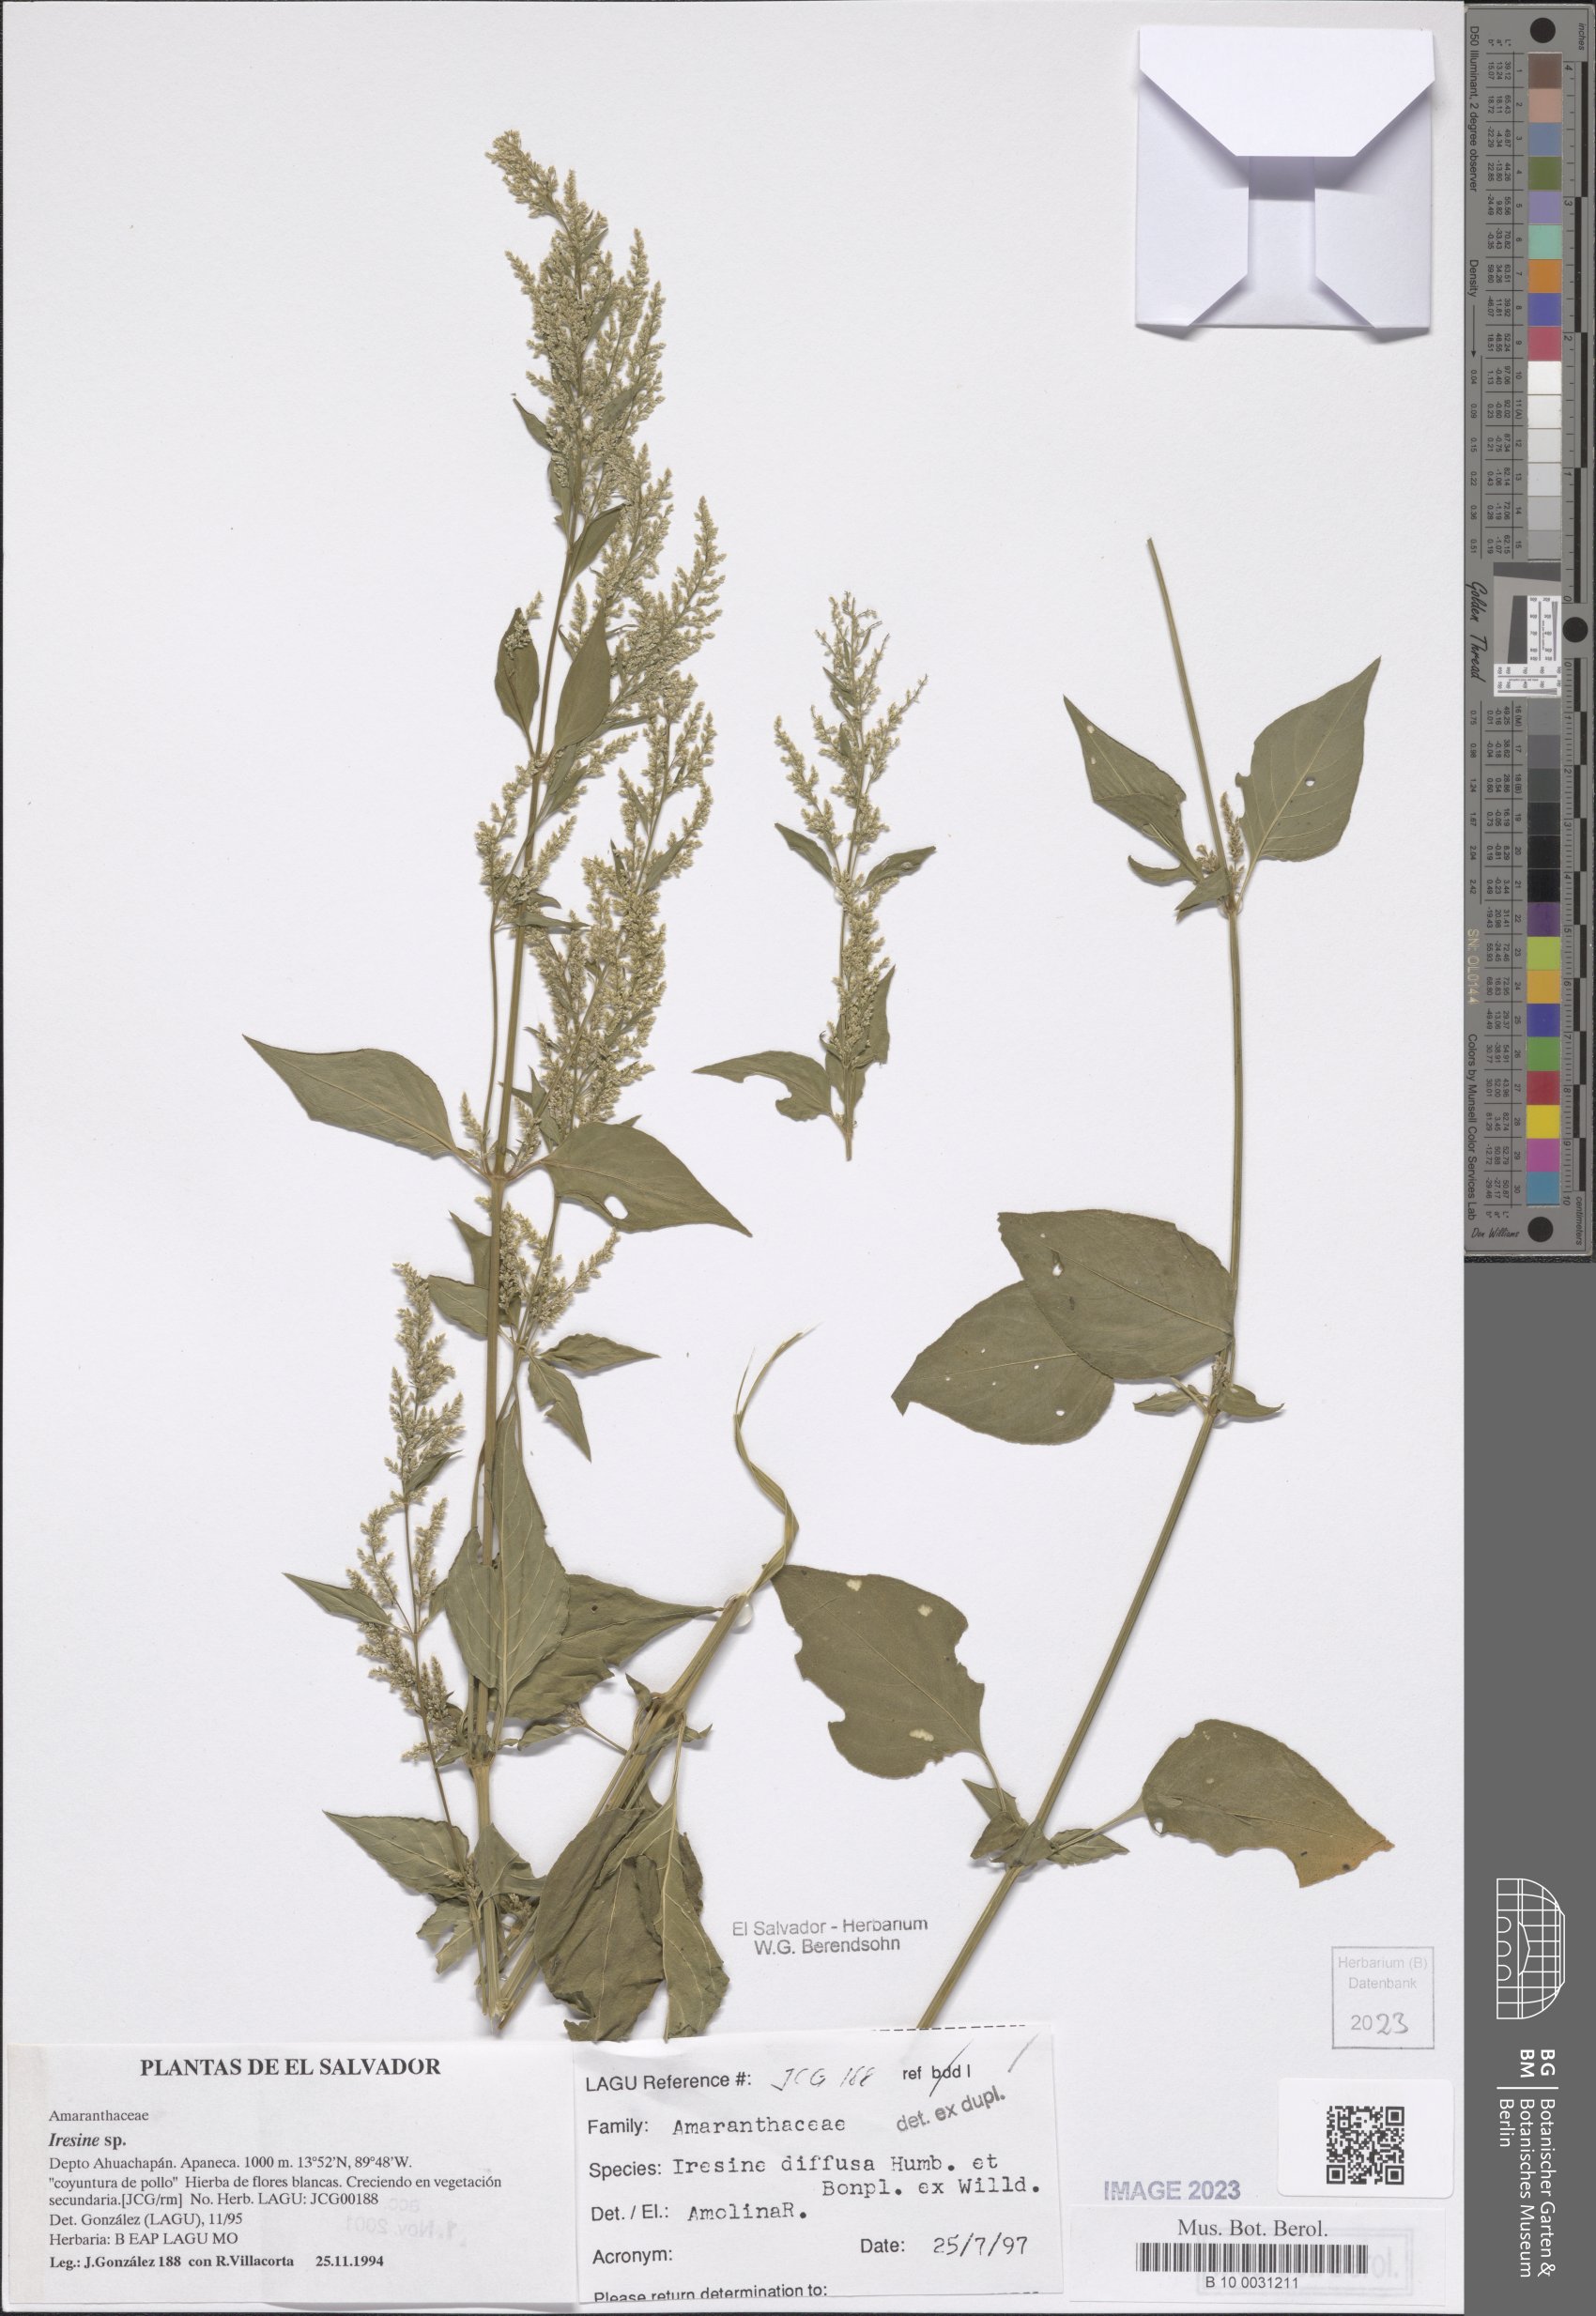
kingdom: Plantae
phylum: Tracheophyta
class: Magnoliopsida
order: Caryophyllales
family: Amaranthaceae
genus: Iresine
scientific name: Iresine diffusa
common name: Juba's-bush
